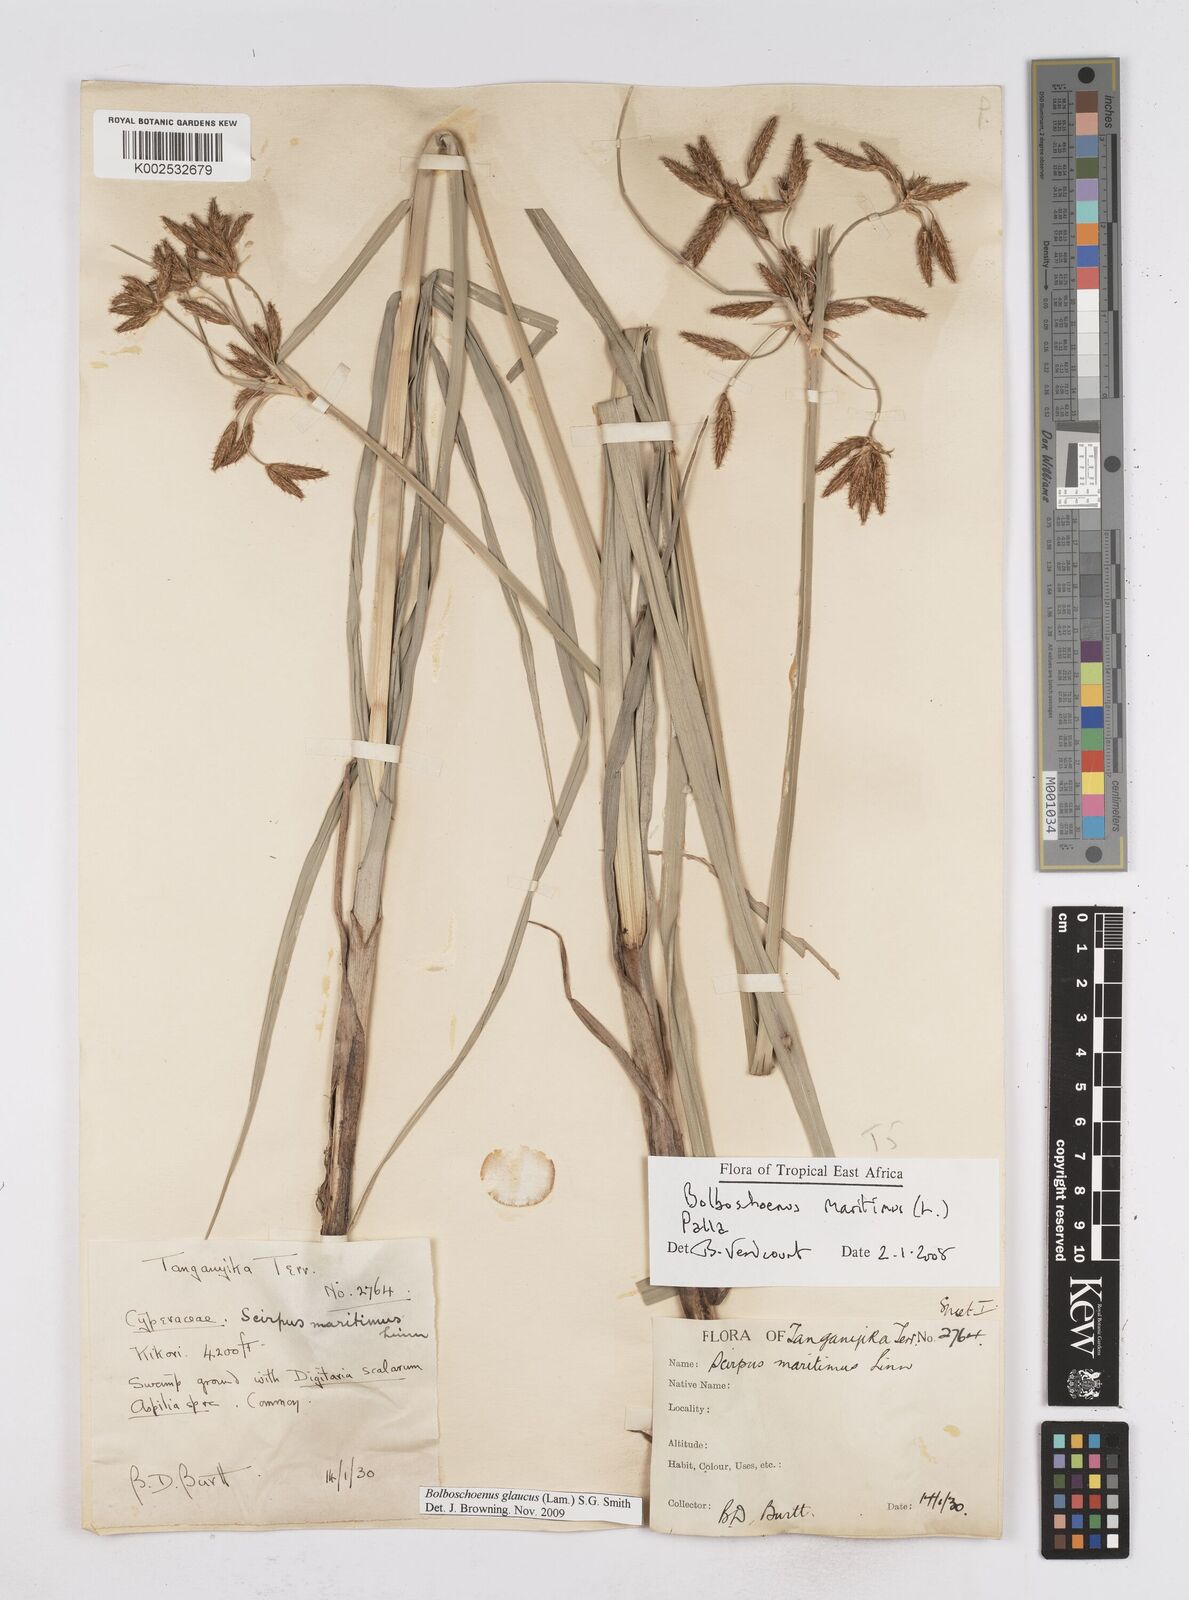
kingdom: Plantae
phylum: Tracheophyta
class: Liliopsida
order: Poales
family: Cyperaceae
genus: Bolboschoenus
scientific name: Bolboschoenus glaucus
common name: Tuberous bulrush
